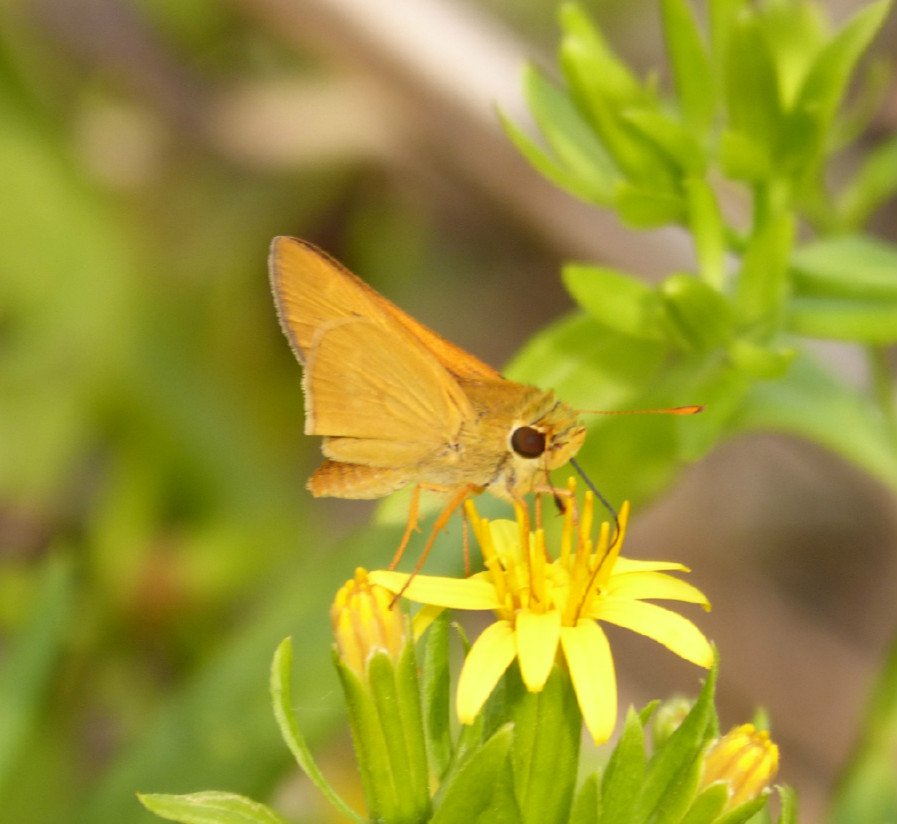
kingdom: Animalia
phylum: Arthropoda
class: Insecta
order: Lepidoptera
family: Hesperiidae
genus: Mellana
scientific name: Mellana eulogius
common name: Common Mellana
